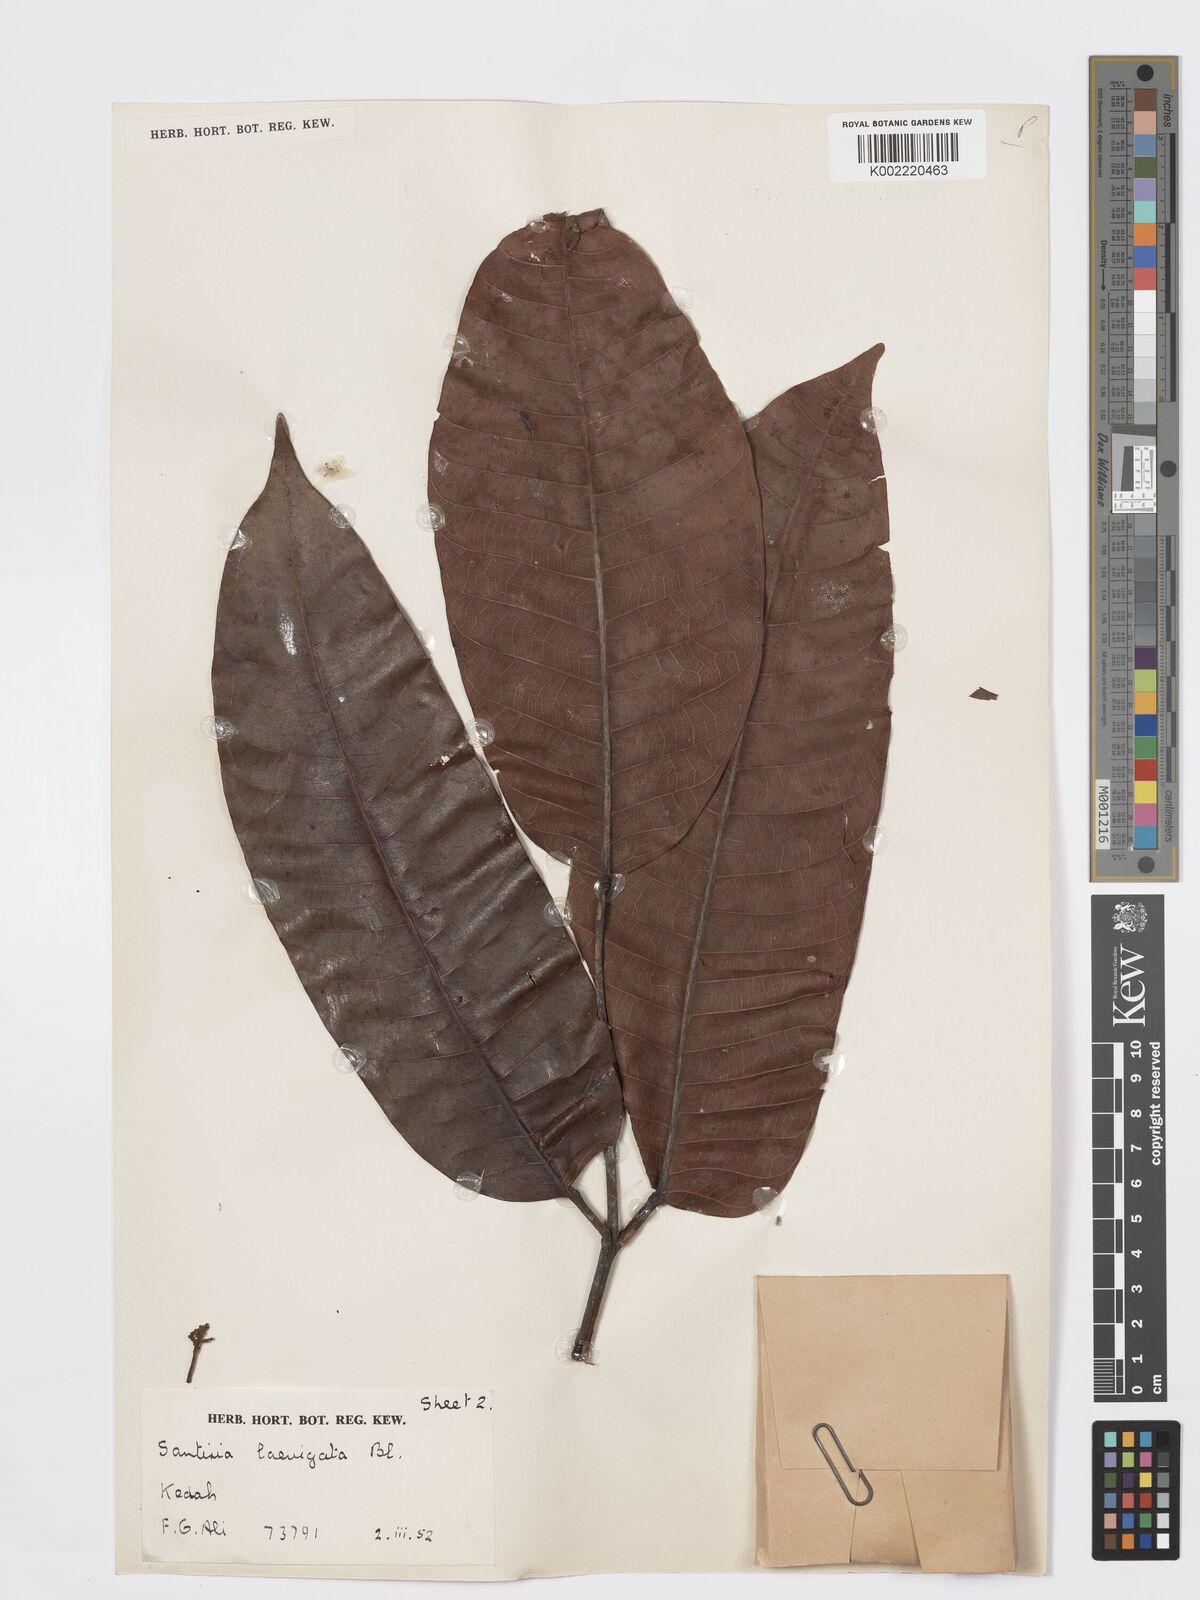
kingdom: Plantae
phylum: Tracheophyta
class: Magnoliopsida
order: Sapindales
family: Burseraceae
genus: Santiria
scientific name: Santiria laevigata
